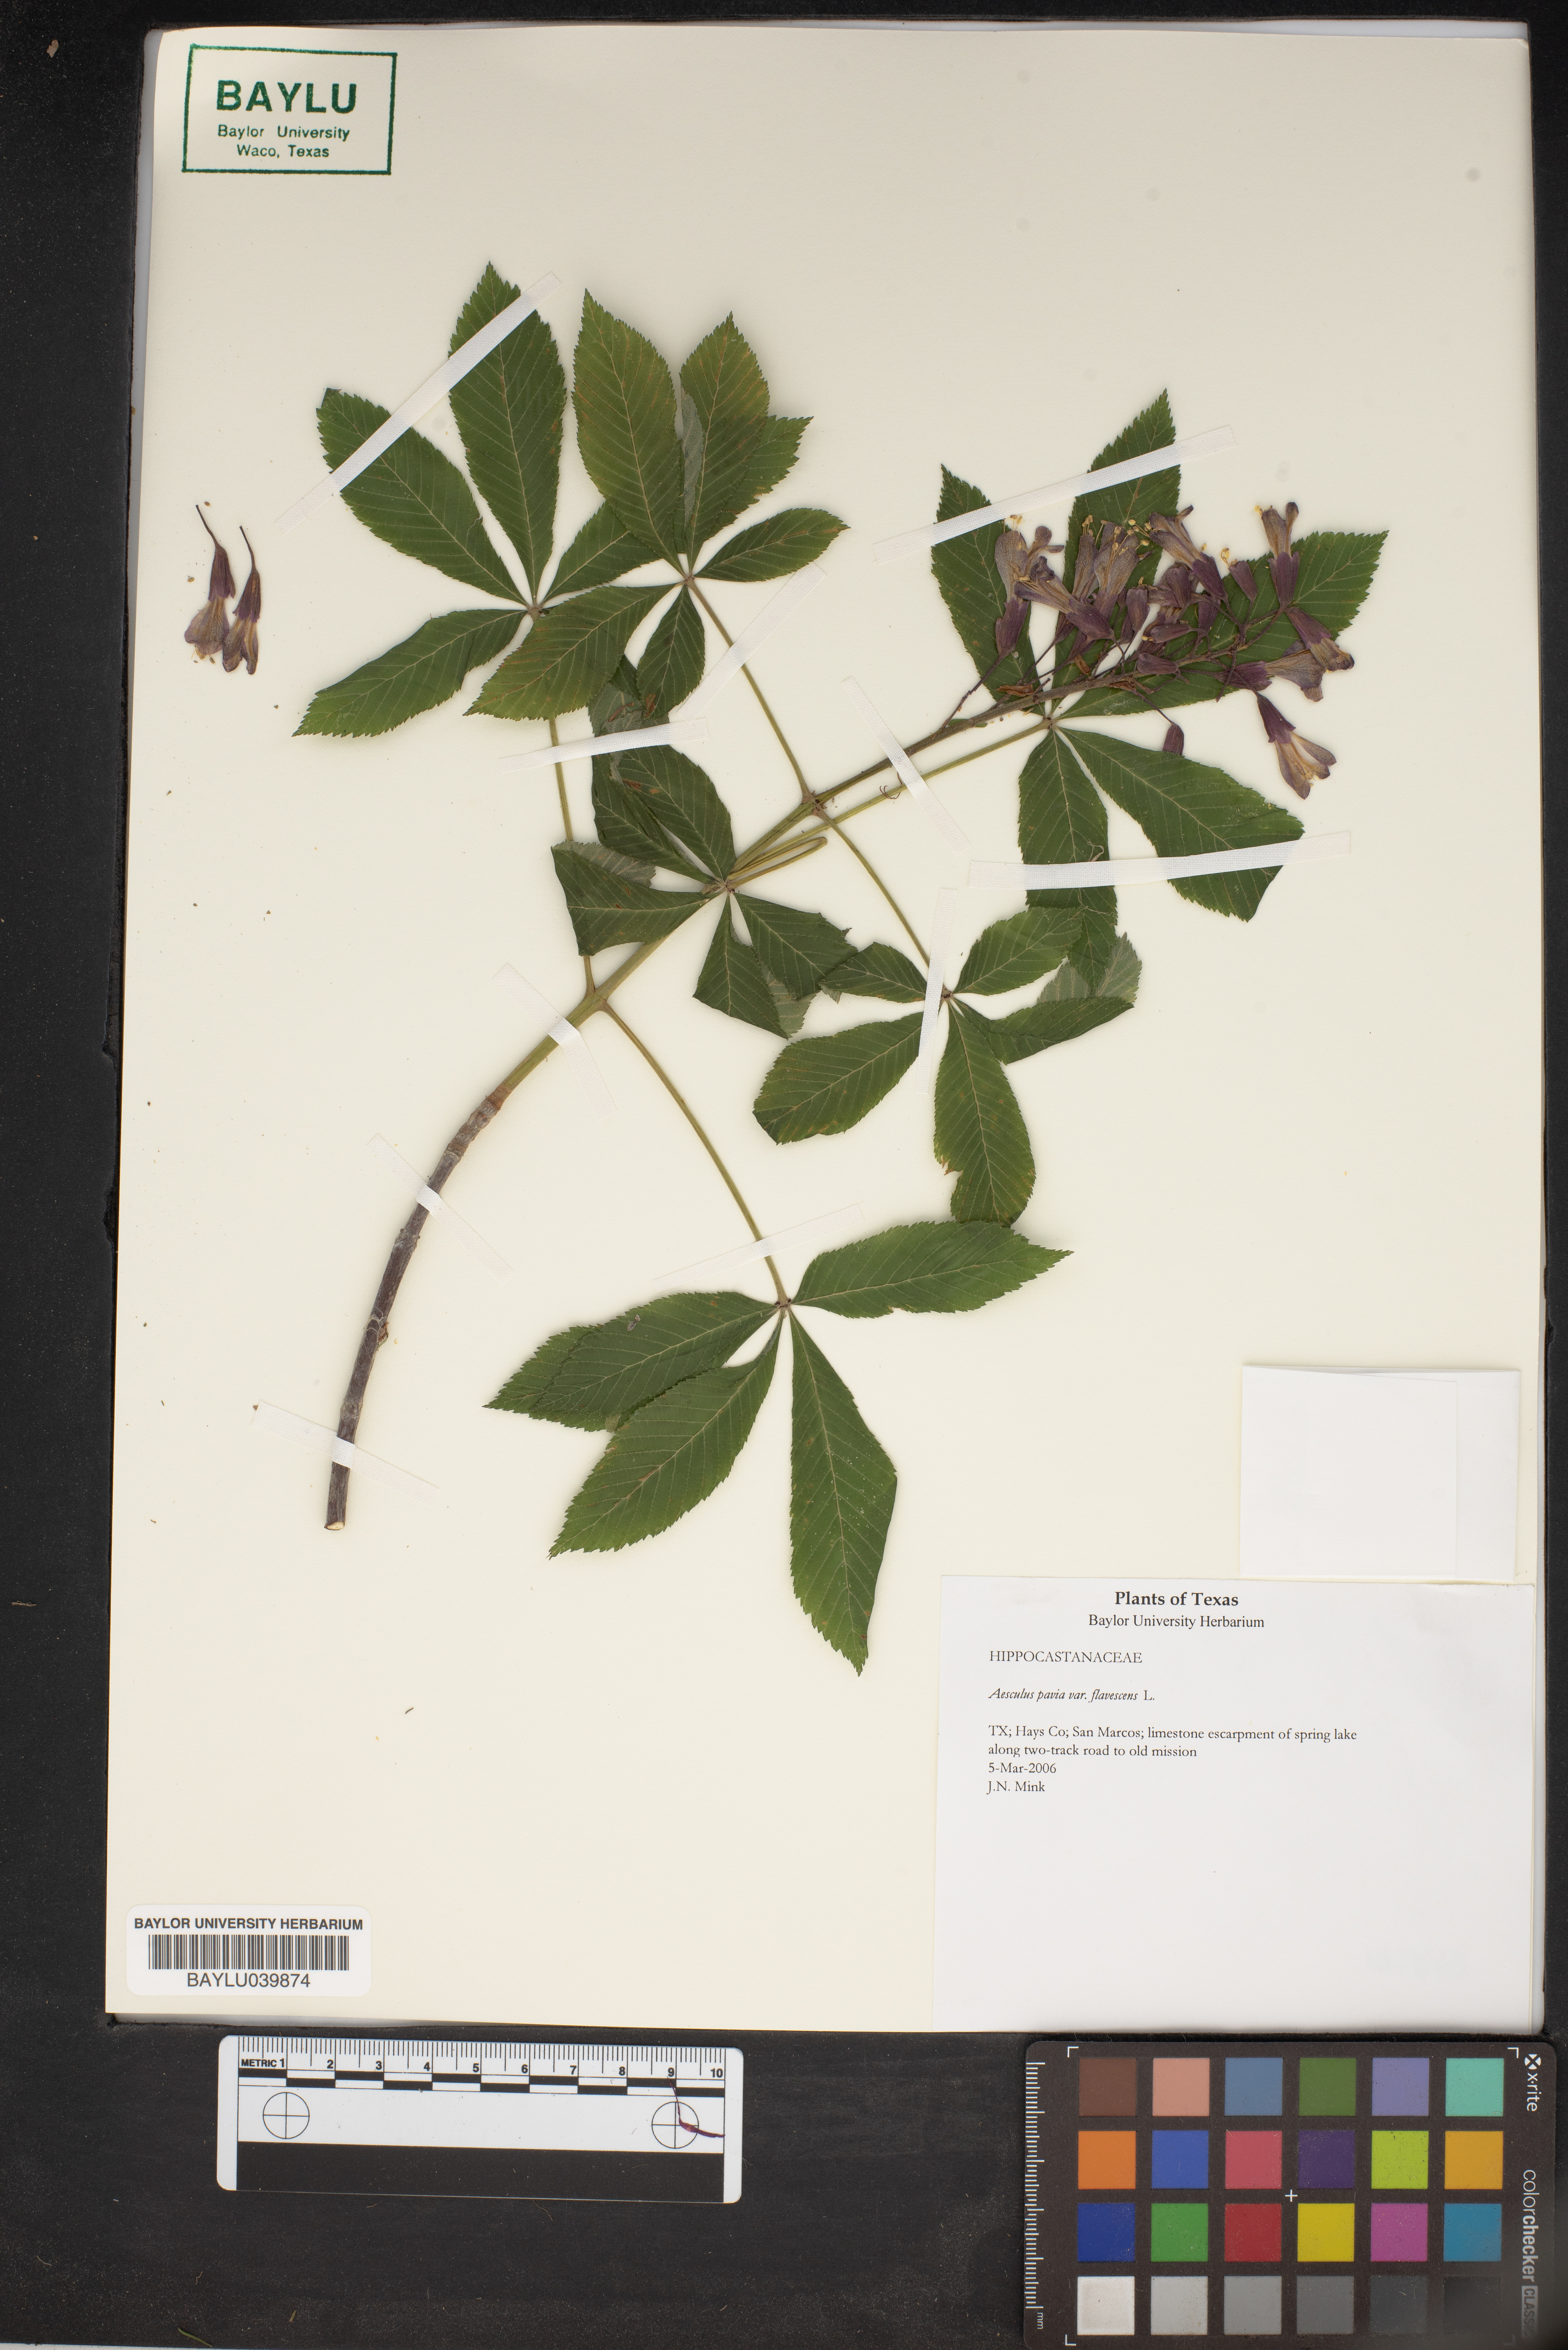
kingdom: Plantae
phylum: Tracheophyta
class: Magnoliopsida
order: Sapindales
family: Sapindaceae
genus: Aesculus
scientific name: Aesculus pavia
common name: Red buckeye
